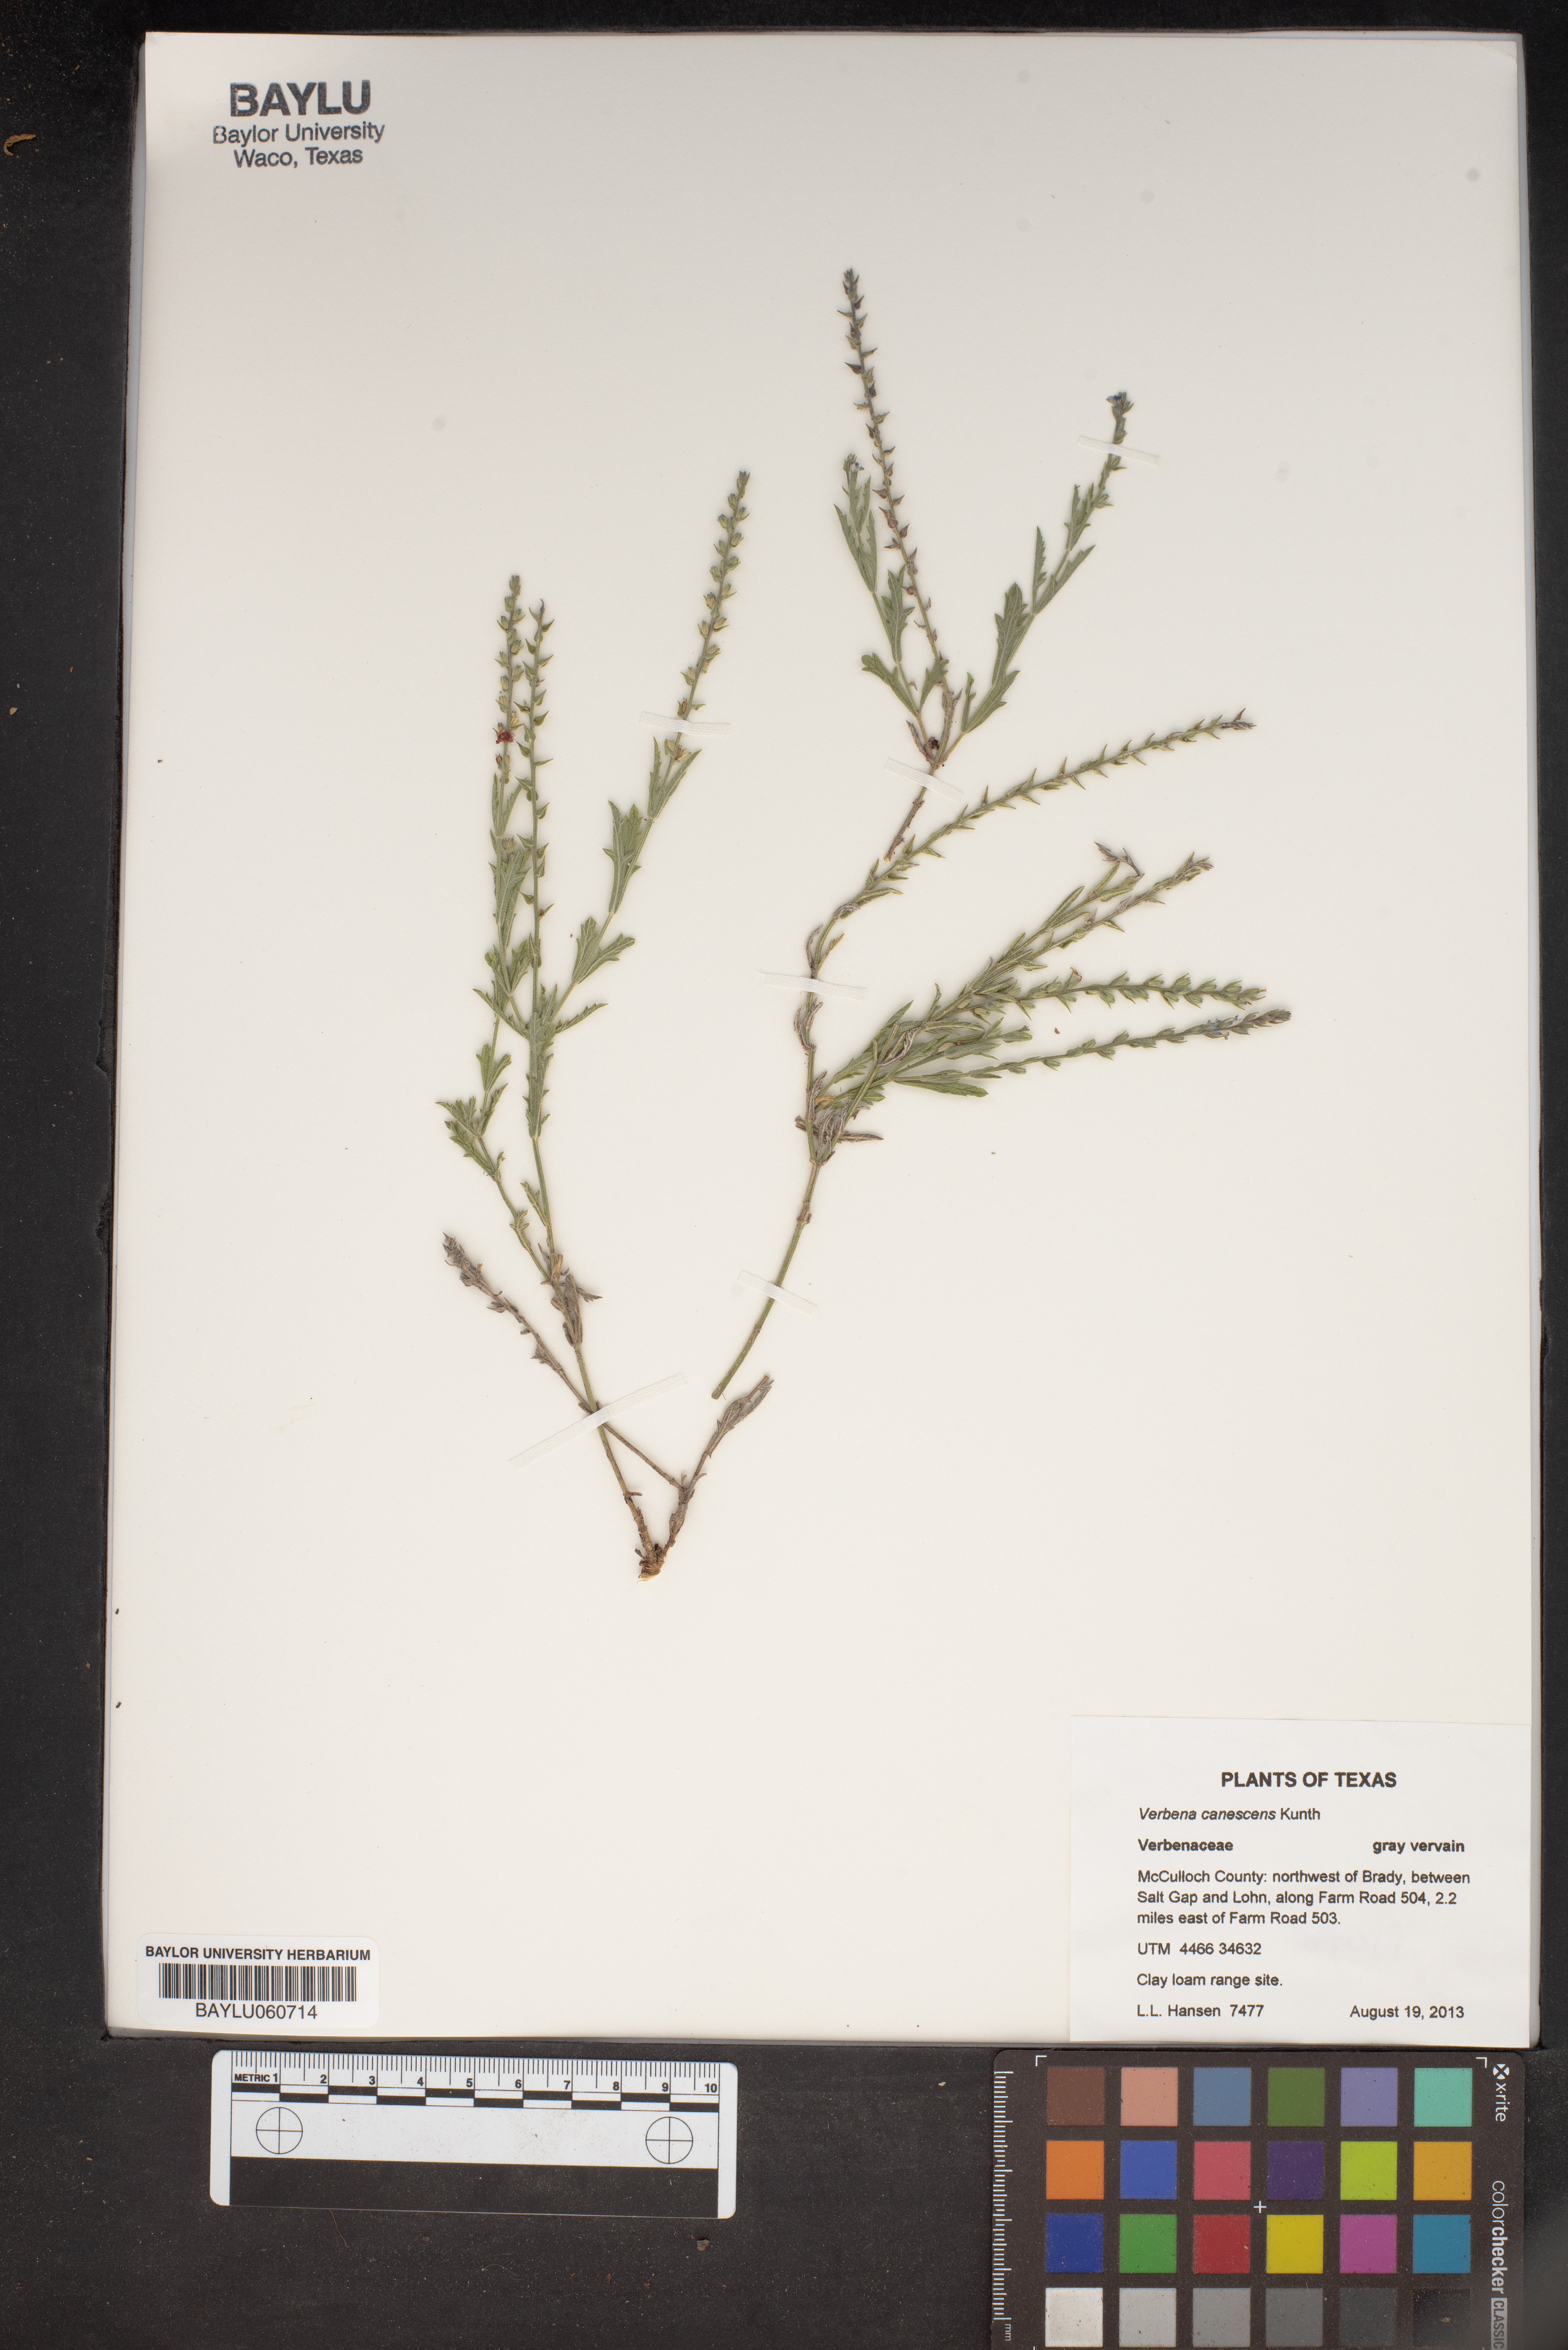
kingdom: Plantae
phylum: Tracheophyta
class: Magnoliopsida
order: Lamiales
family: Verbenaceae
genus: Verbena
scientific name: Verbena canescens
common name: Gray vervain
